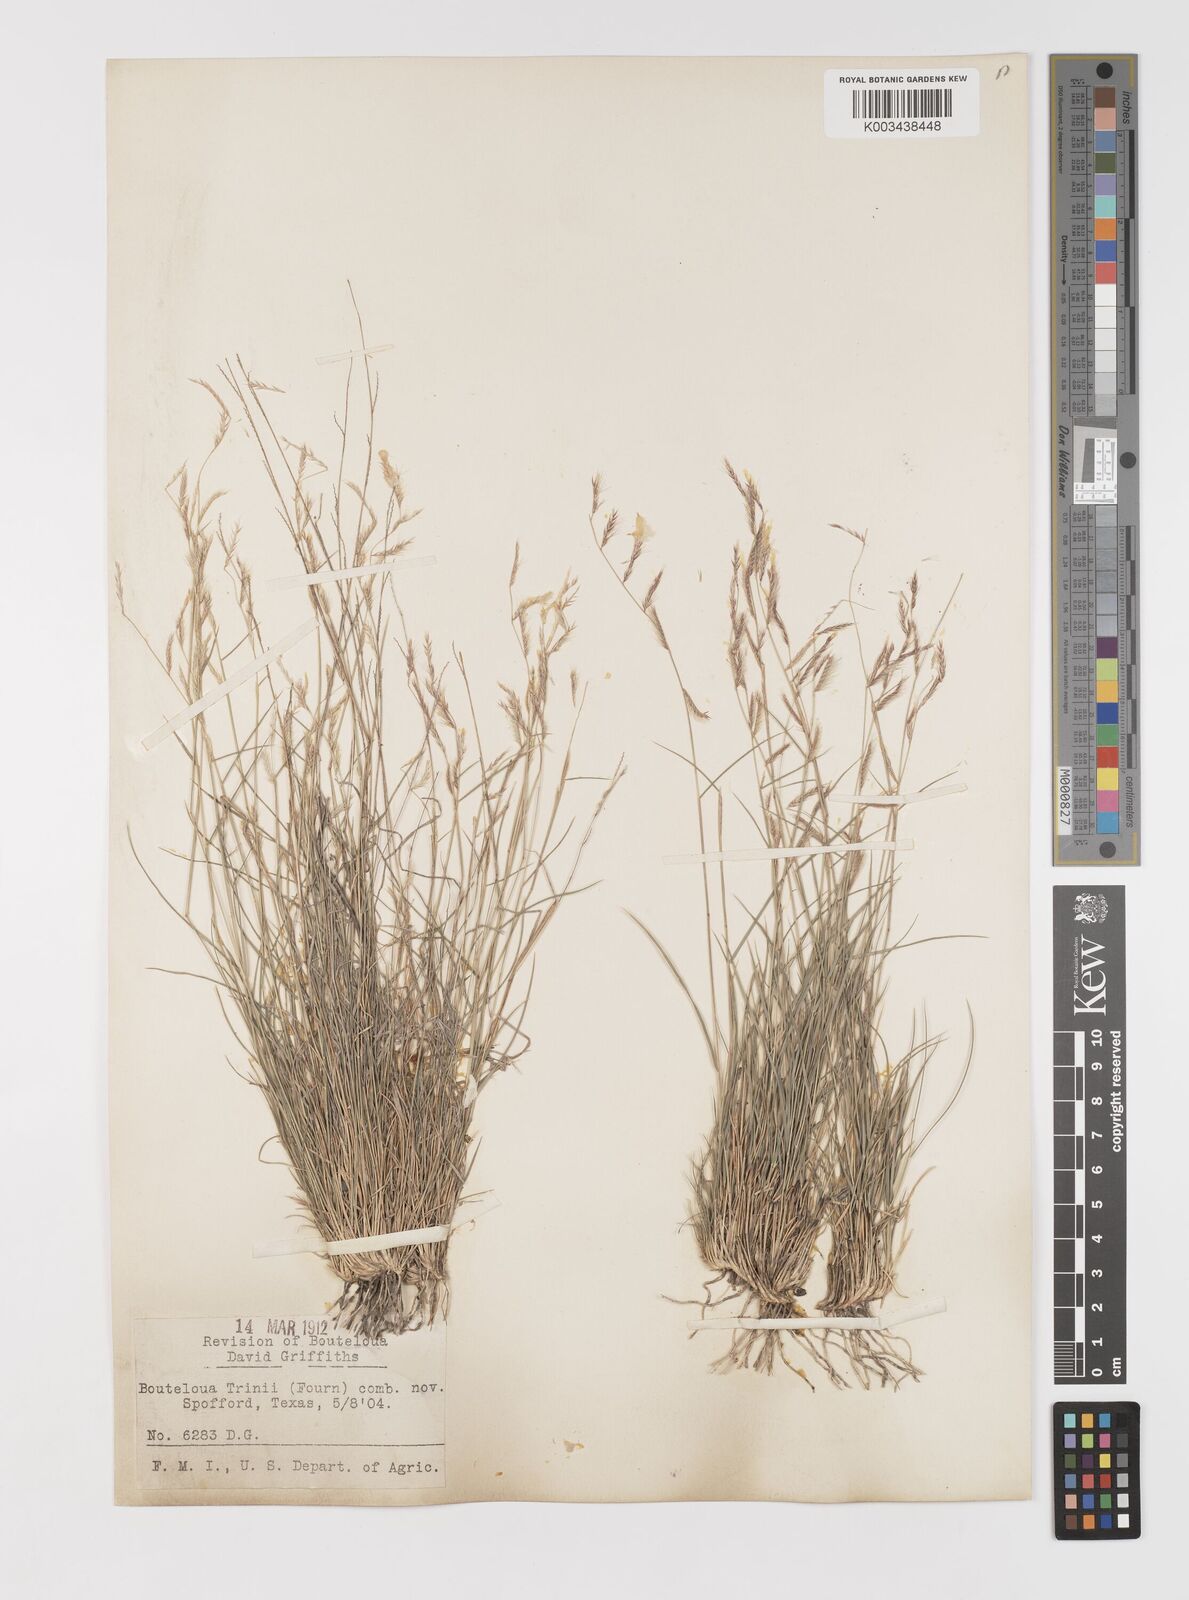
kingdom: Plantae
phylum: Tracheophyta
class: Liliopsida
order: Poales
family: Poaceae
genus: Bouteloua
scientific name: Bouteloua trifida
